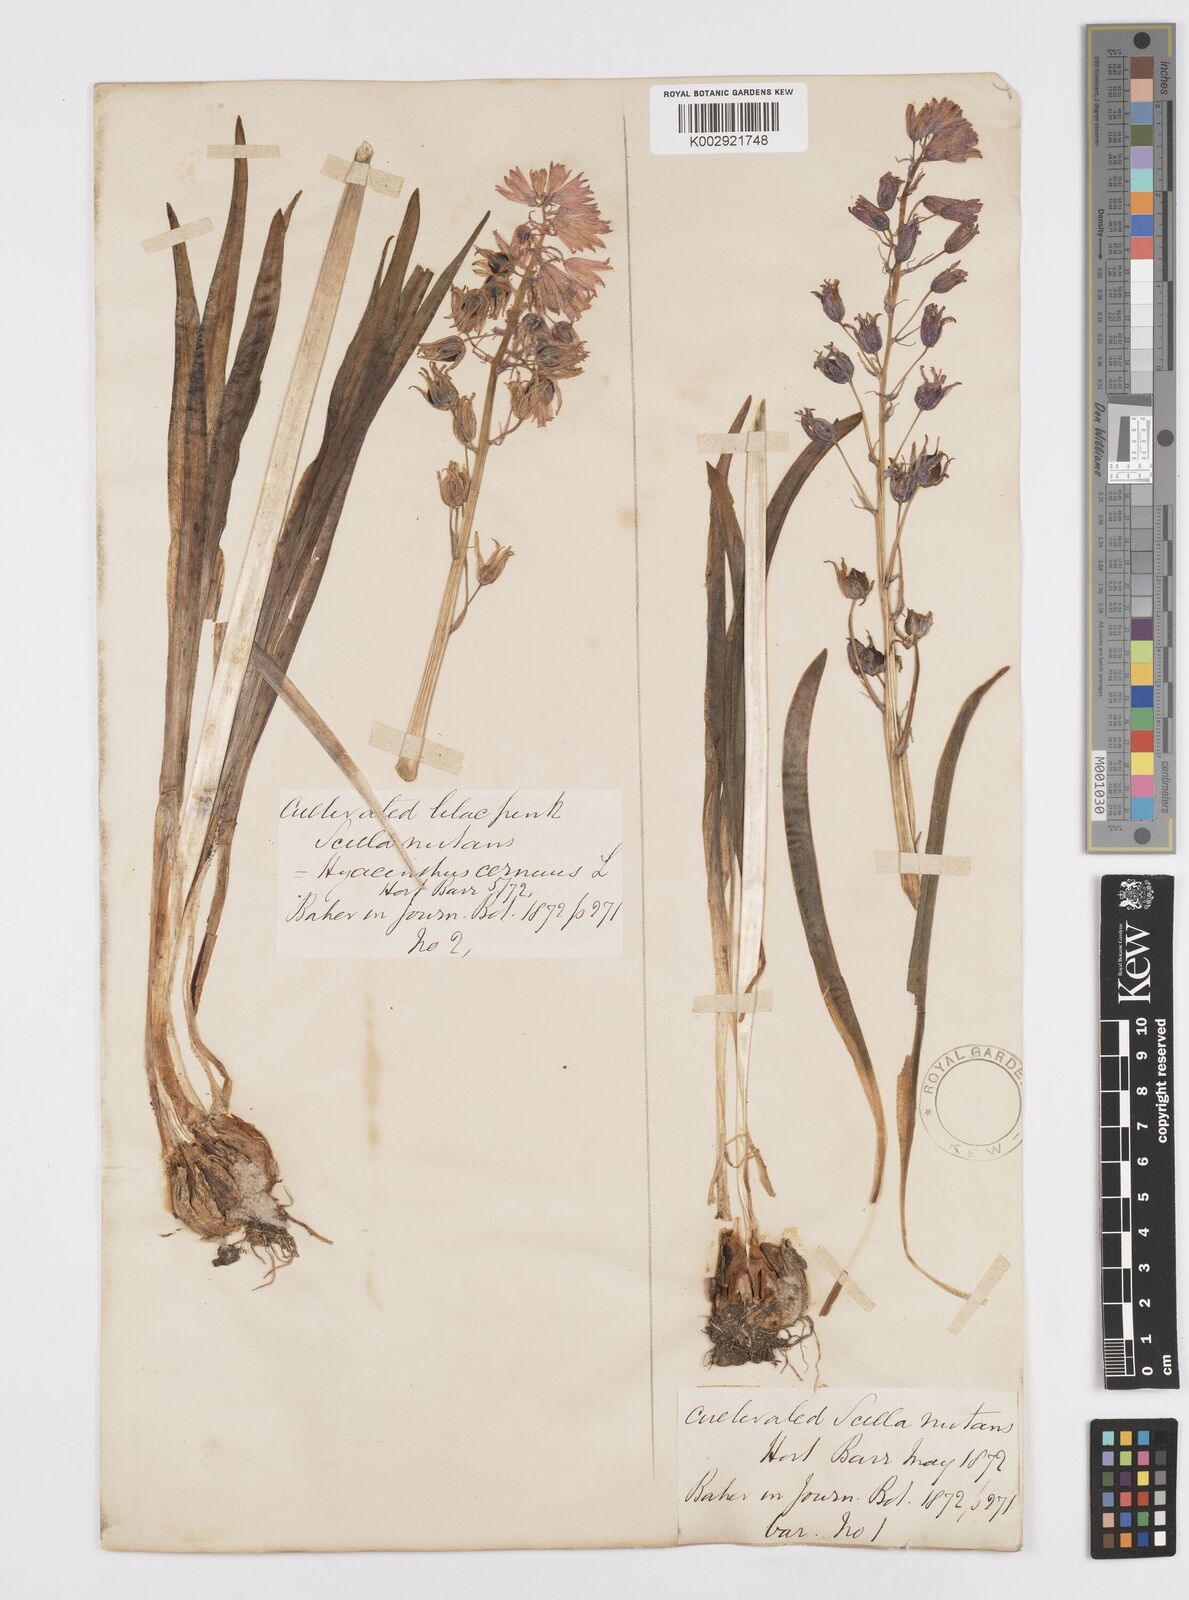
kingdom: Plantae
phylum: Tracheophyta
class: Liliopsida
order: Asparagales
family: Asparagaceae
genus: Hyacinthoides
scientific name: Hyacinthoides hispanica
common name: Spanish bluebell
